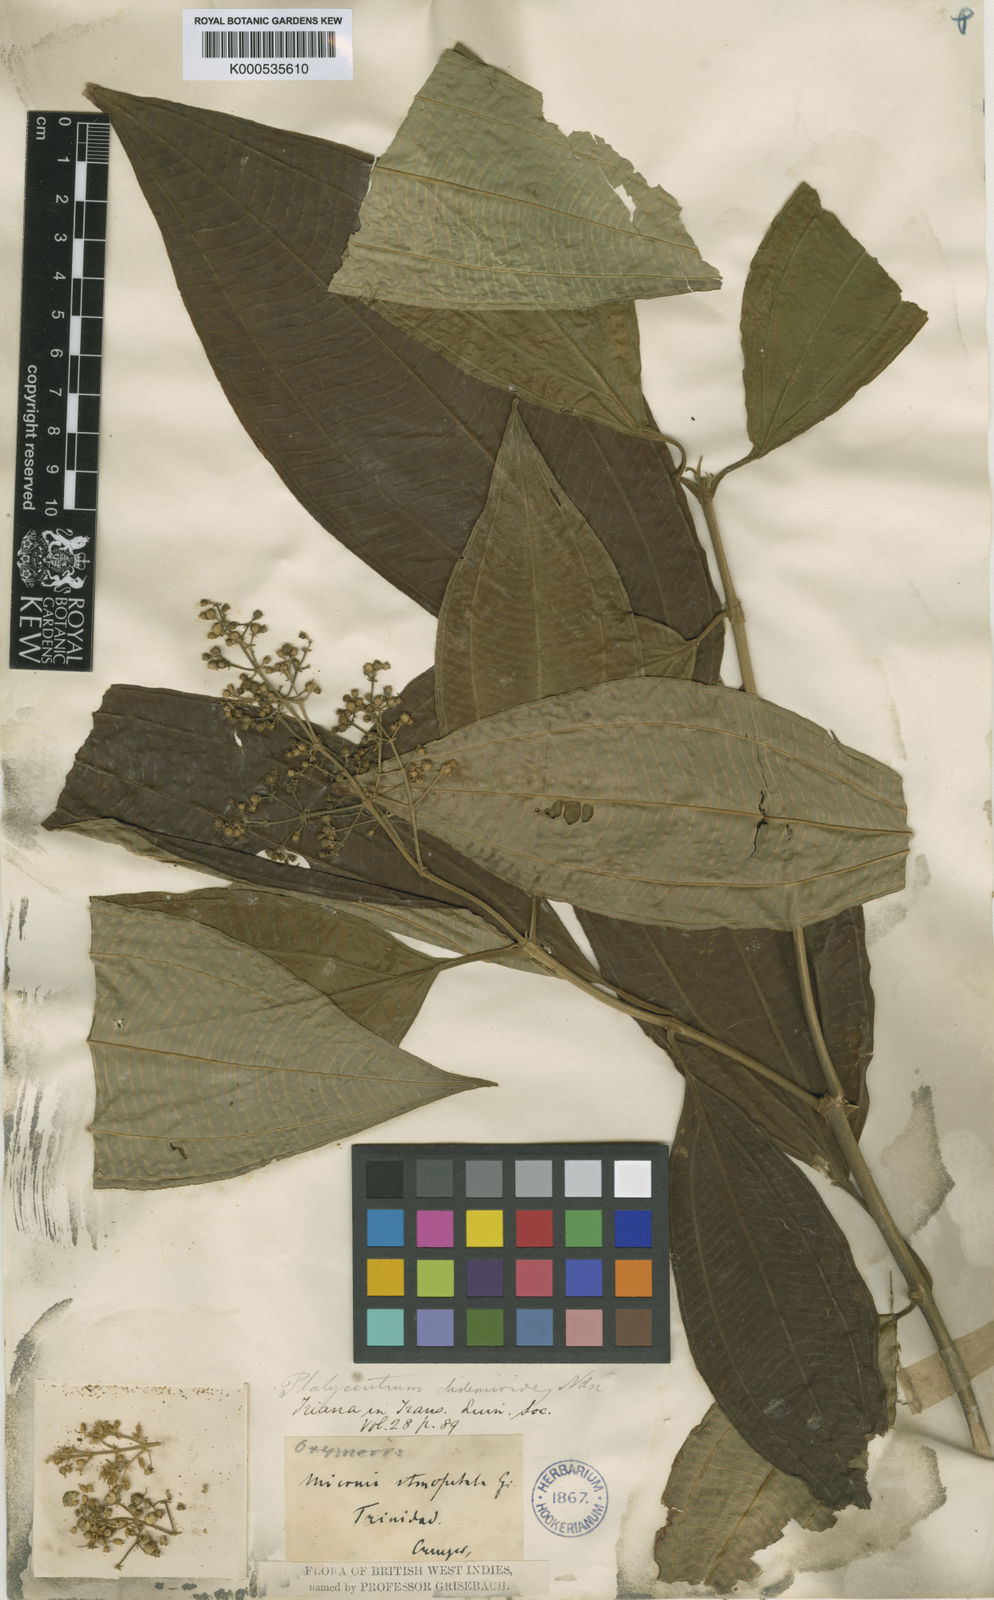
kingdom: Plantae
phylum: Tracheophyta
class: Magnoliopsida
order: Myrtales
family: Melastomataceae
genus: Miconia
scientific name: Miconia stenopetala
